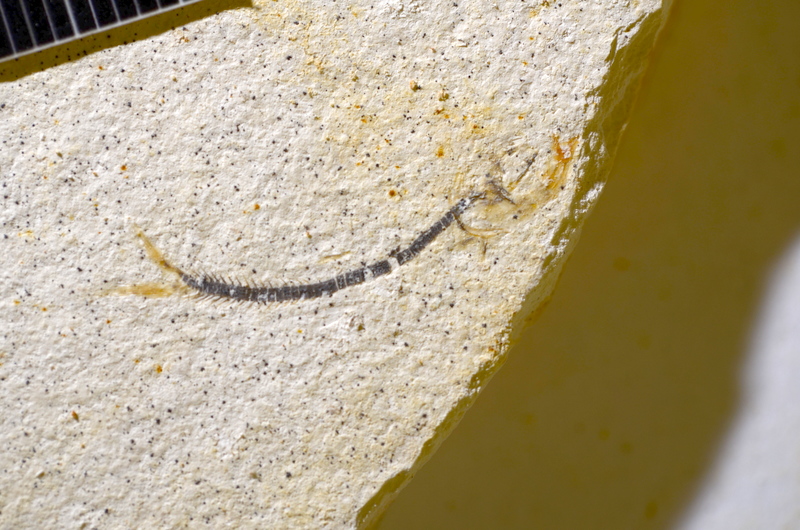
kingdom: Animalia
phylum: Chordata
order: Salmoniformes
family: Orthogonikleithridae
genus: Orthogonikleithrus
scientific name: Orthogonikleithrus hoelli
